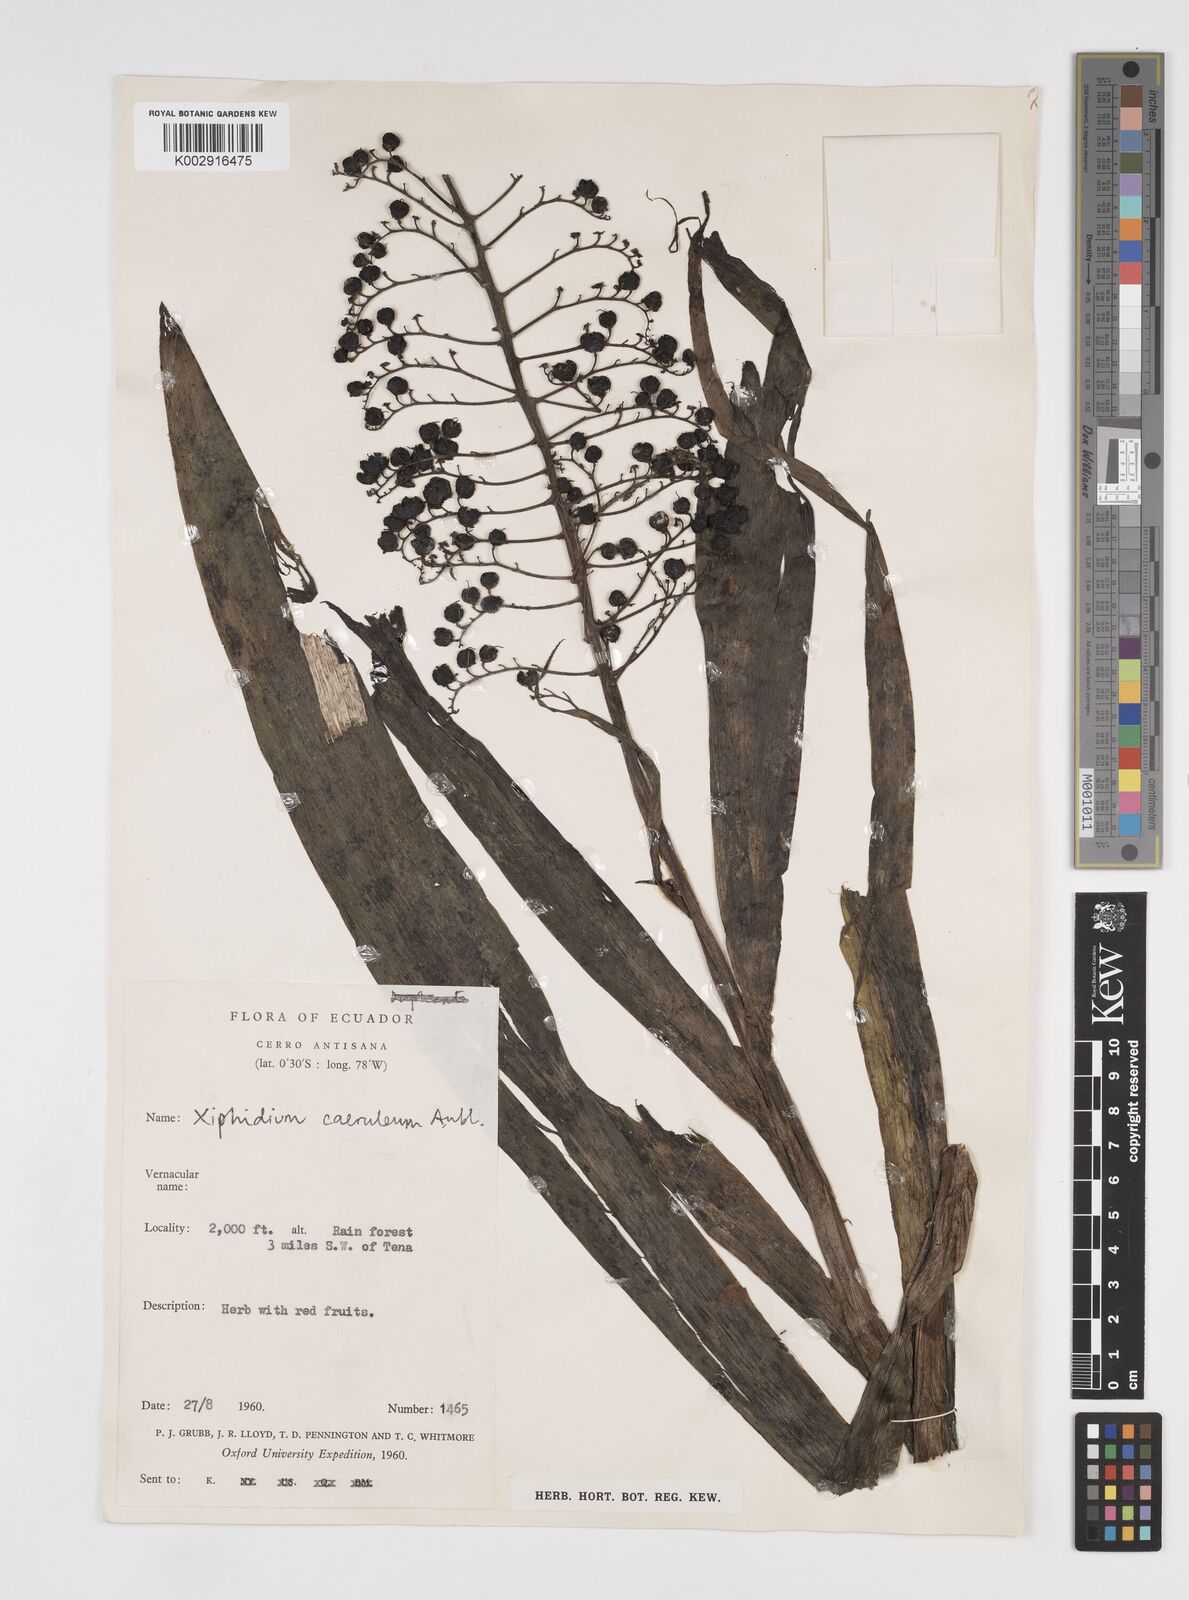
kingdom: Plantae
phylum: Tracheophyta
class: Liliopsida
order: Commelinales
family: Haemodoraceae
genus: Xiphidium
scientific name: Xiphidium caeruleum
